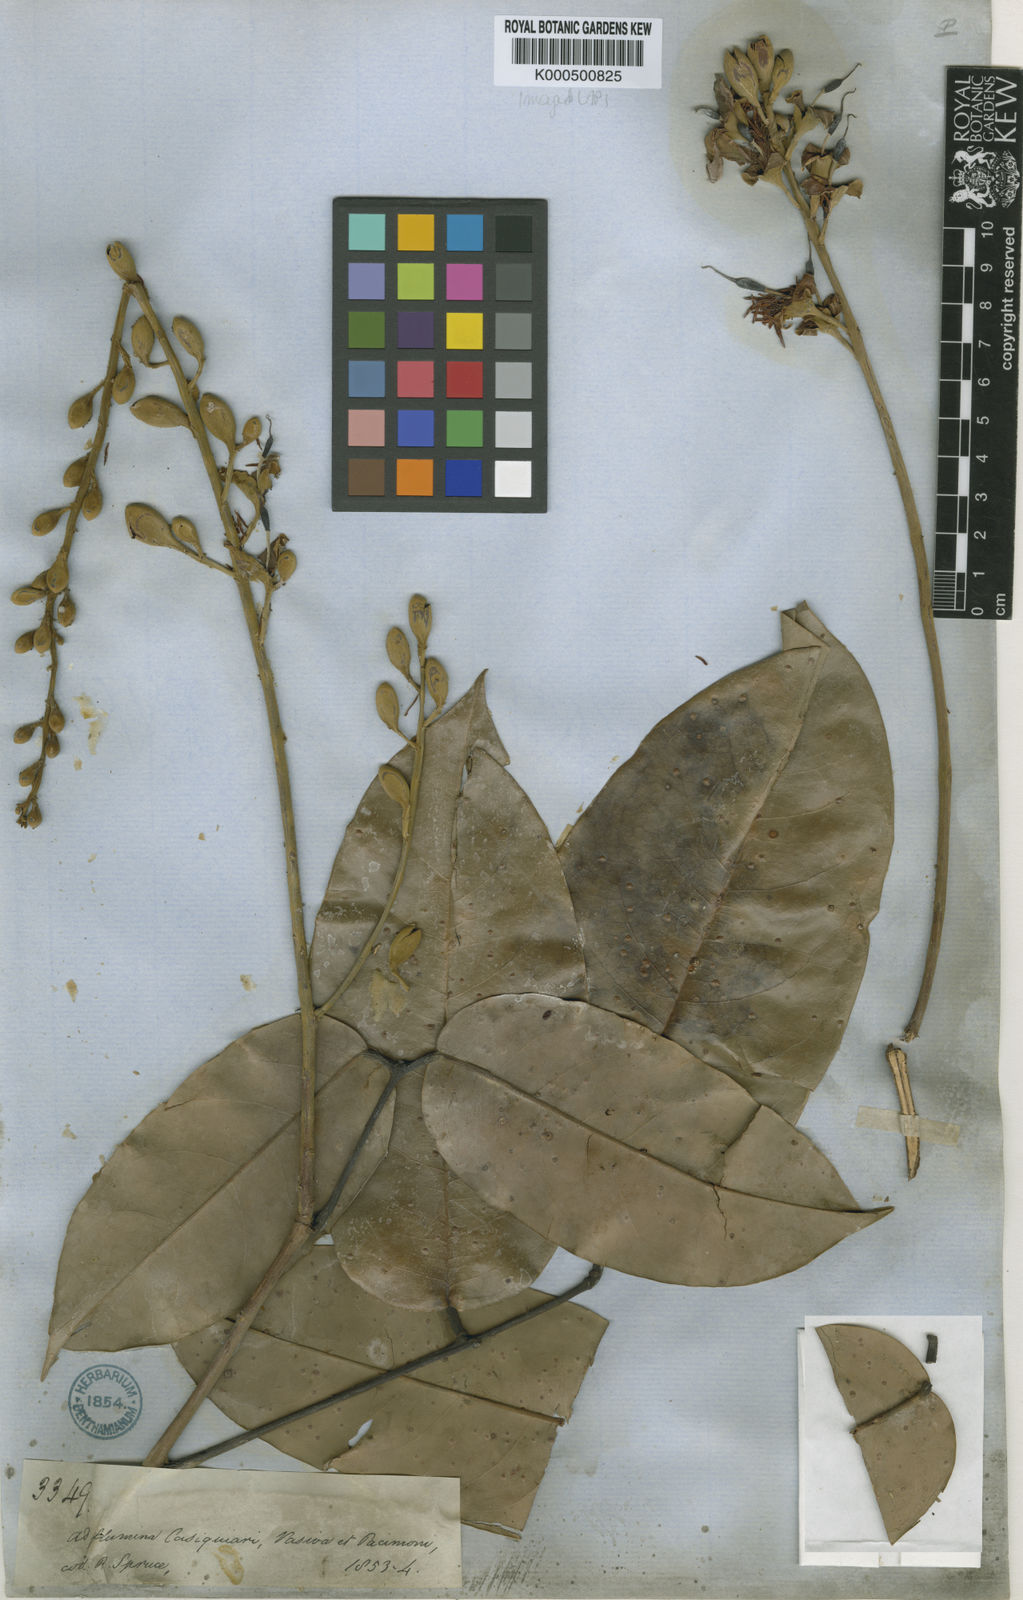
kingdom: Plantae
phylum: Tracheophyta
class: Magnoliopsida
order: Fabales
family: Fabaceae
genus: Aldina
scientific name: Aldina latifolia
